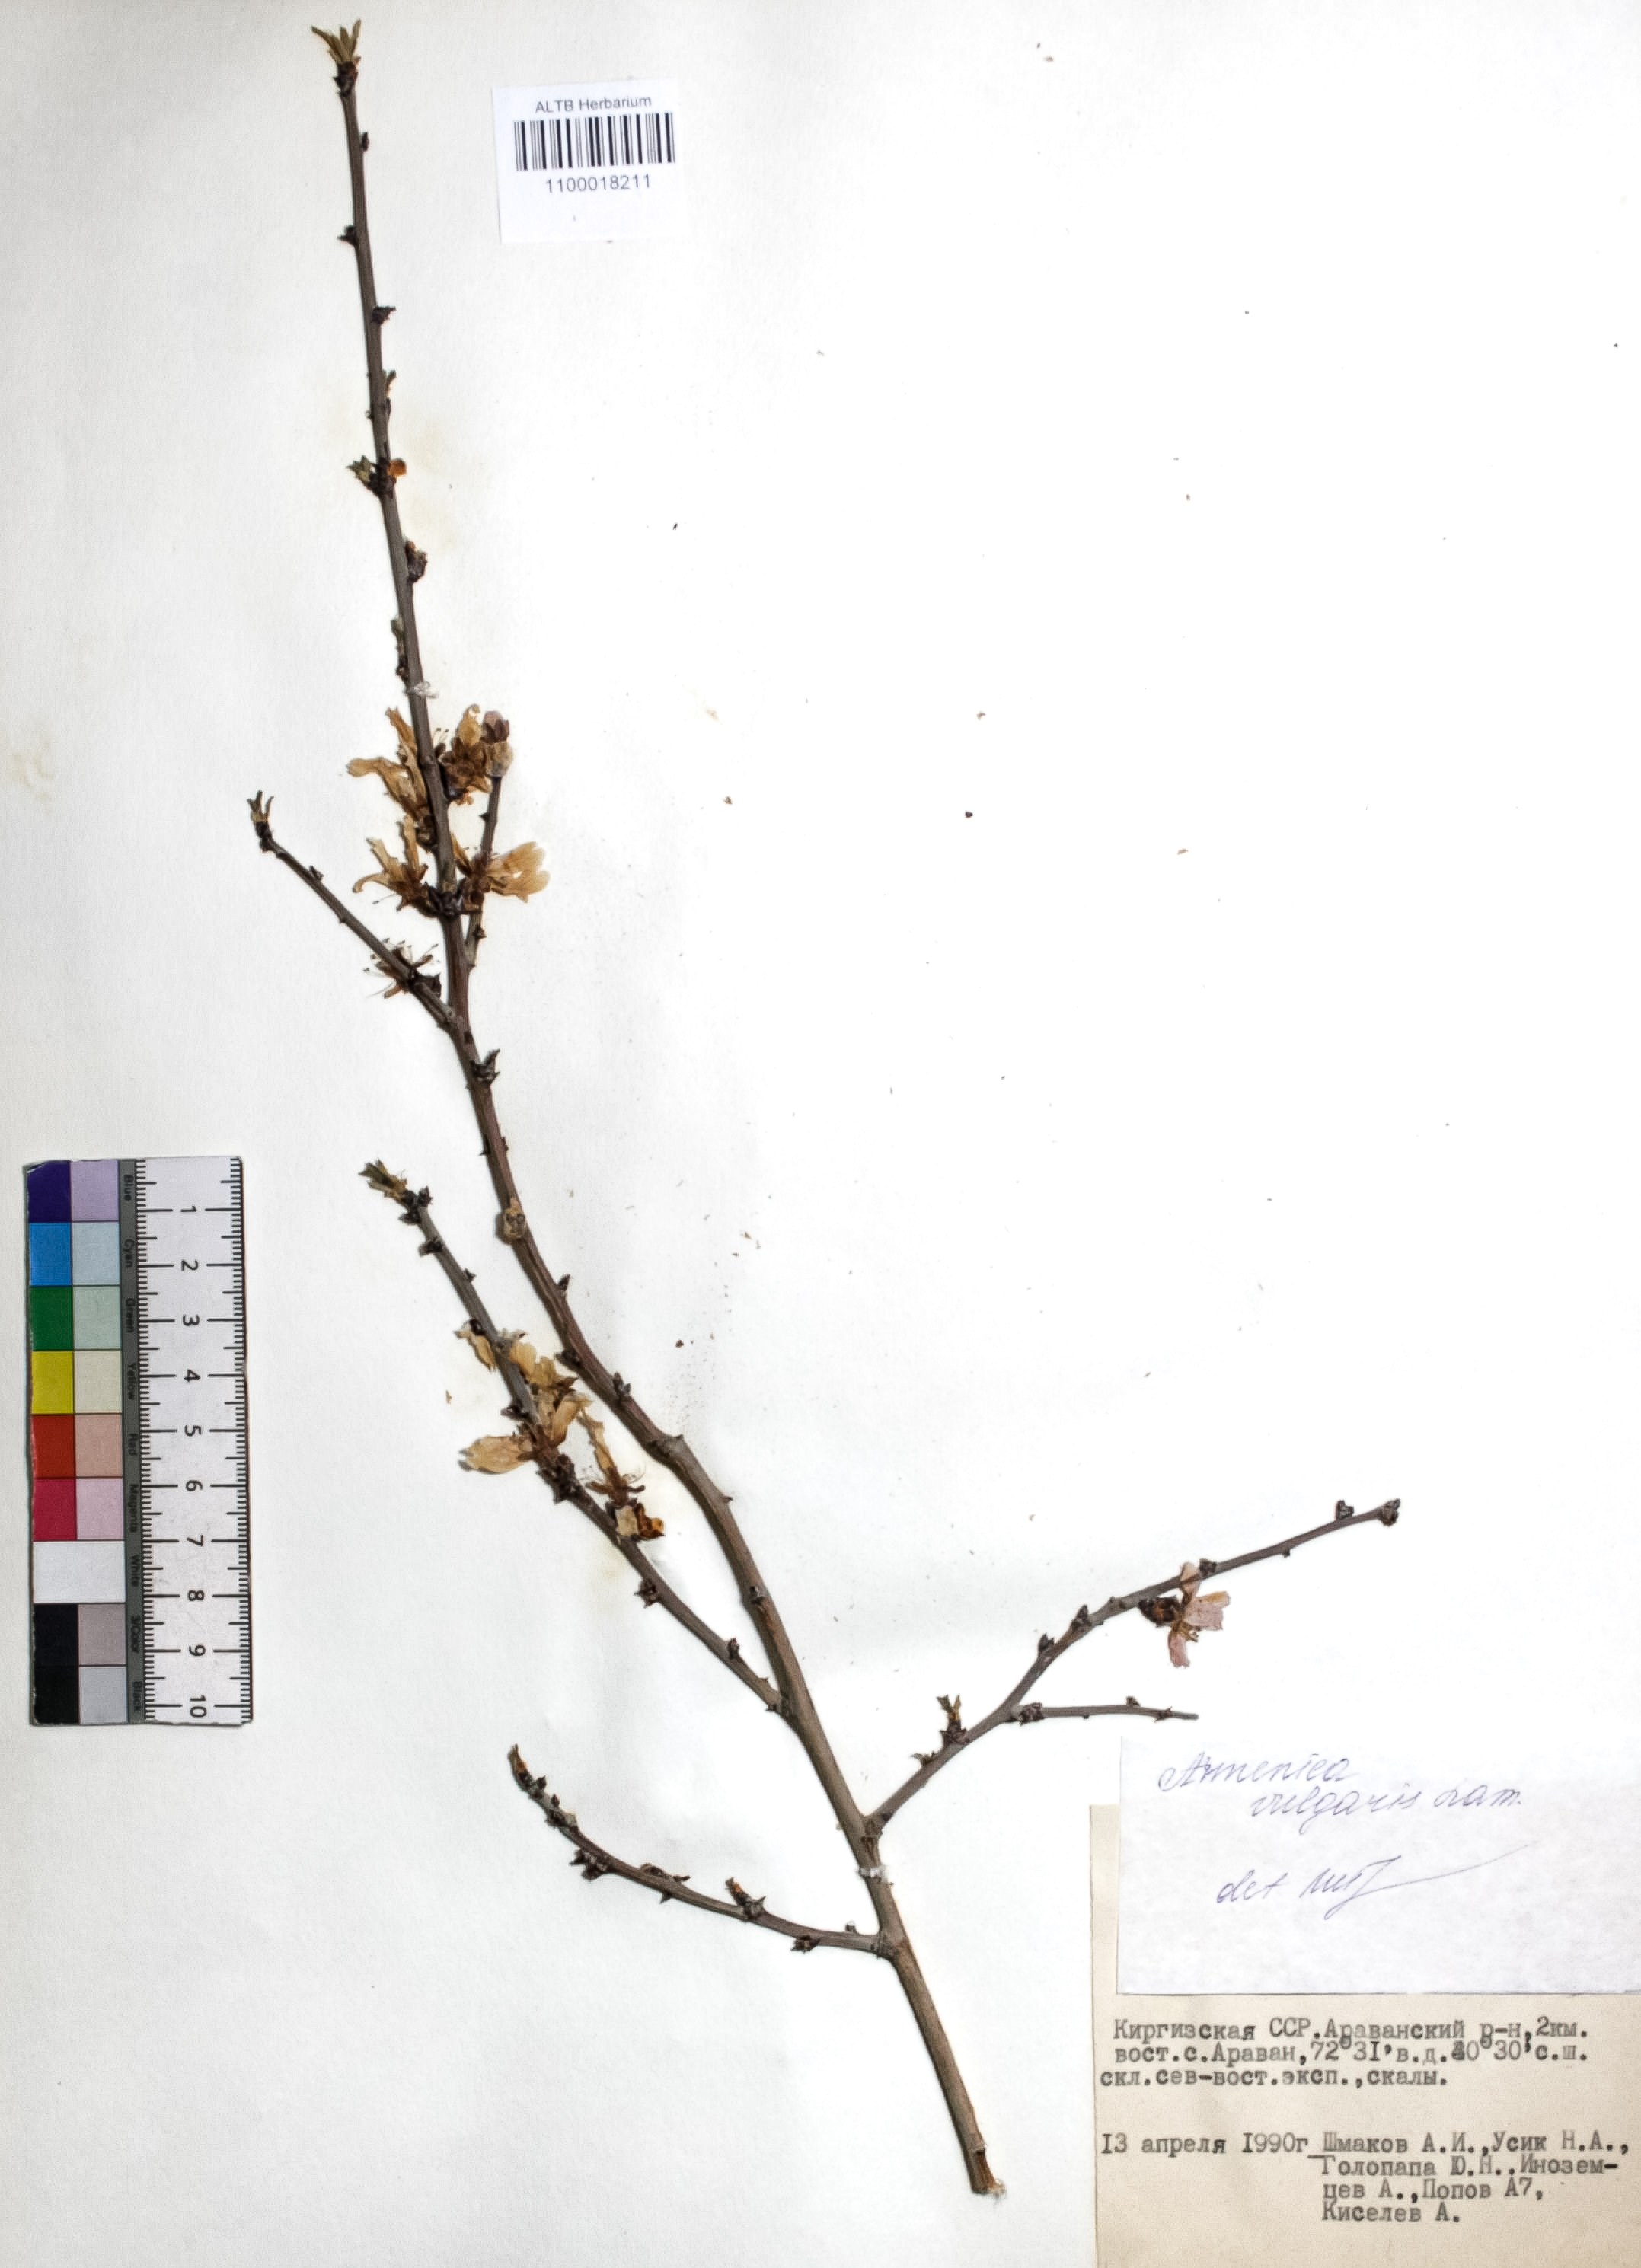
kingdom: Plantae
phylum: Tracheophyta
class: Magnoliopsida
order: Rosales
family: Rosaceae
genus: Prunus
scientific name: Prunus armeniaca
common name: Apricot
